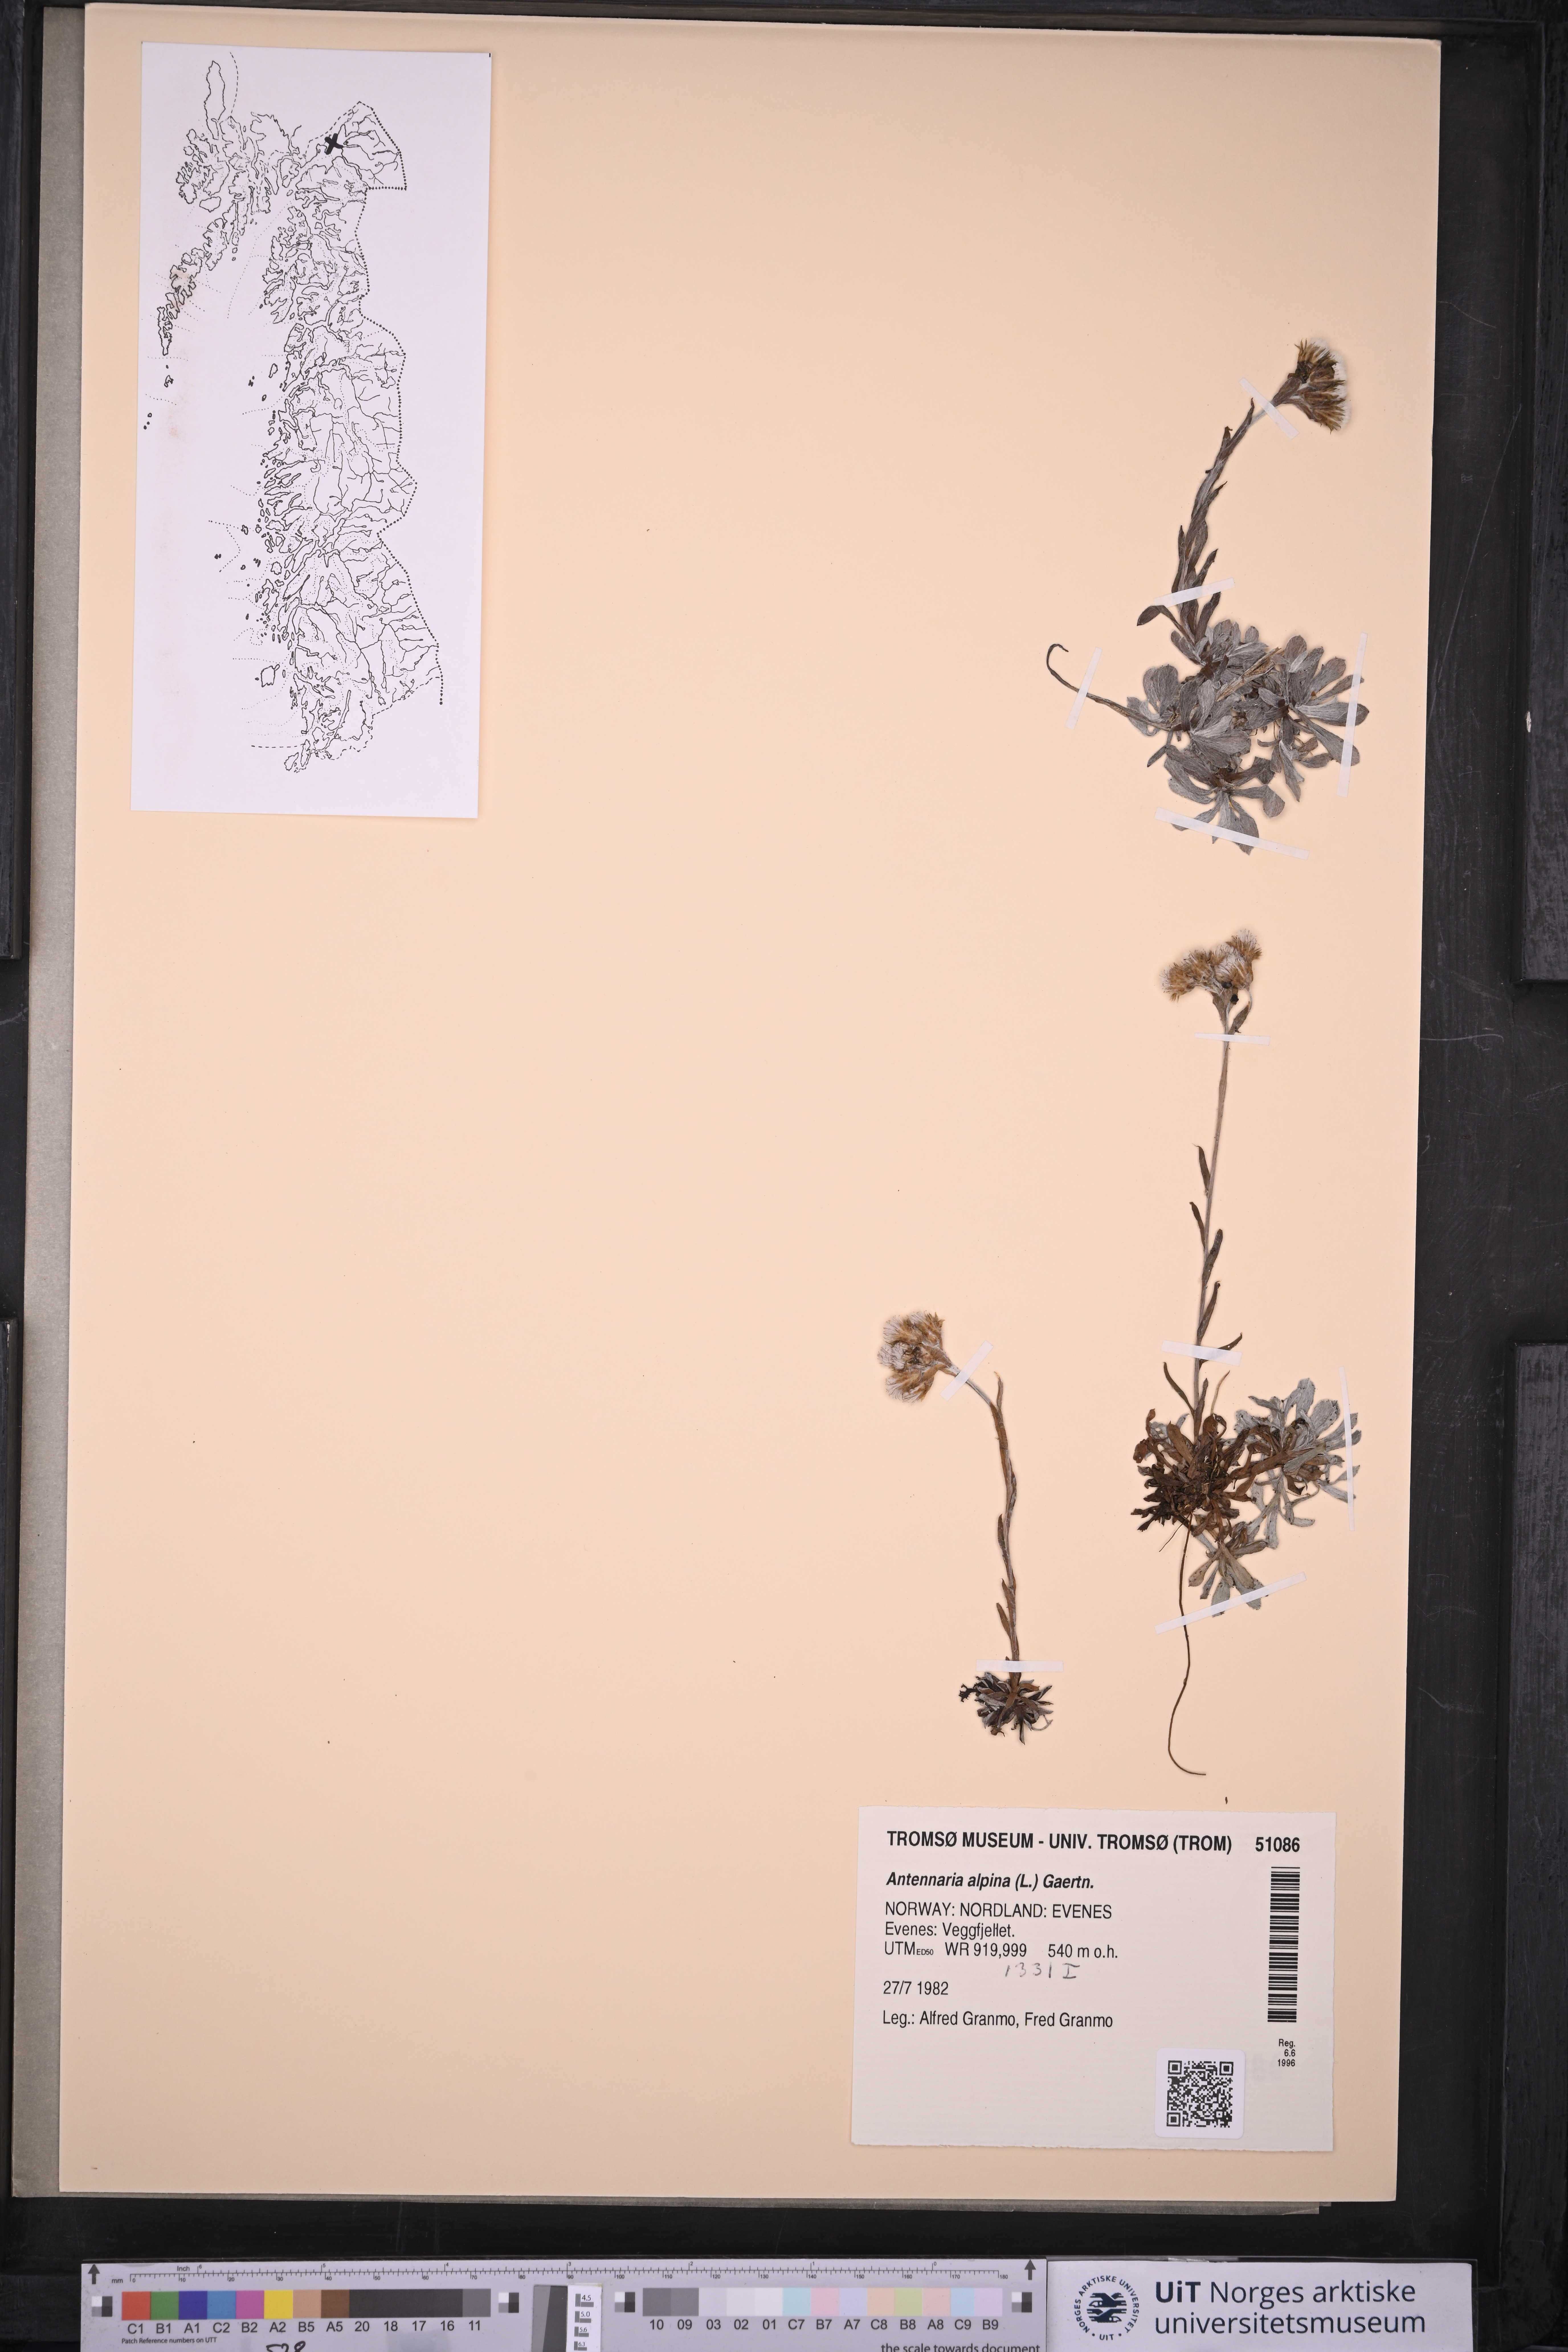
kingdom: Plantae
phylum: Tracheophyta
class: Magnoliopsida
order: Asterales
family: Asteraceae
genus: Antennaria
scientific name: Antennaria alpina
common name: Alpine pussytoes
